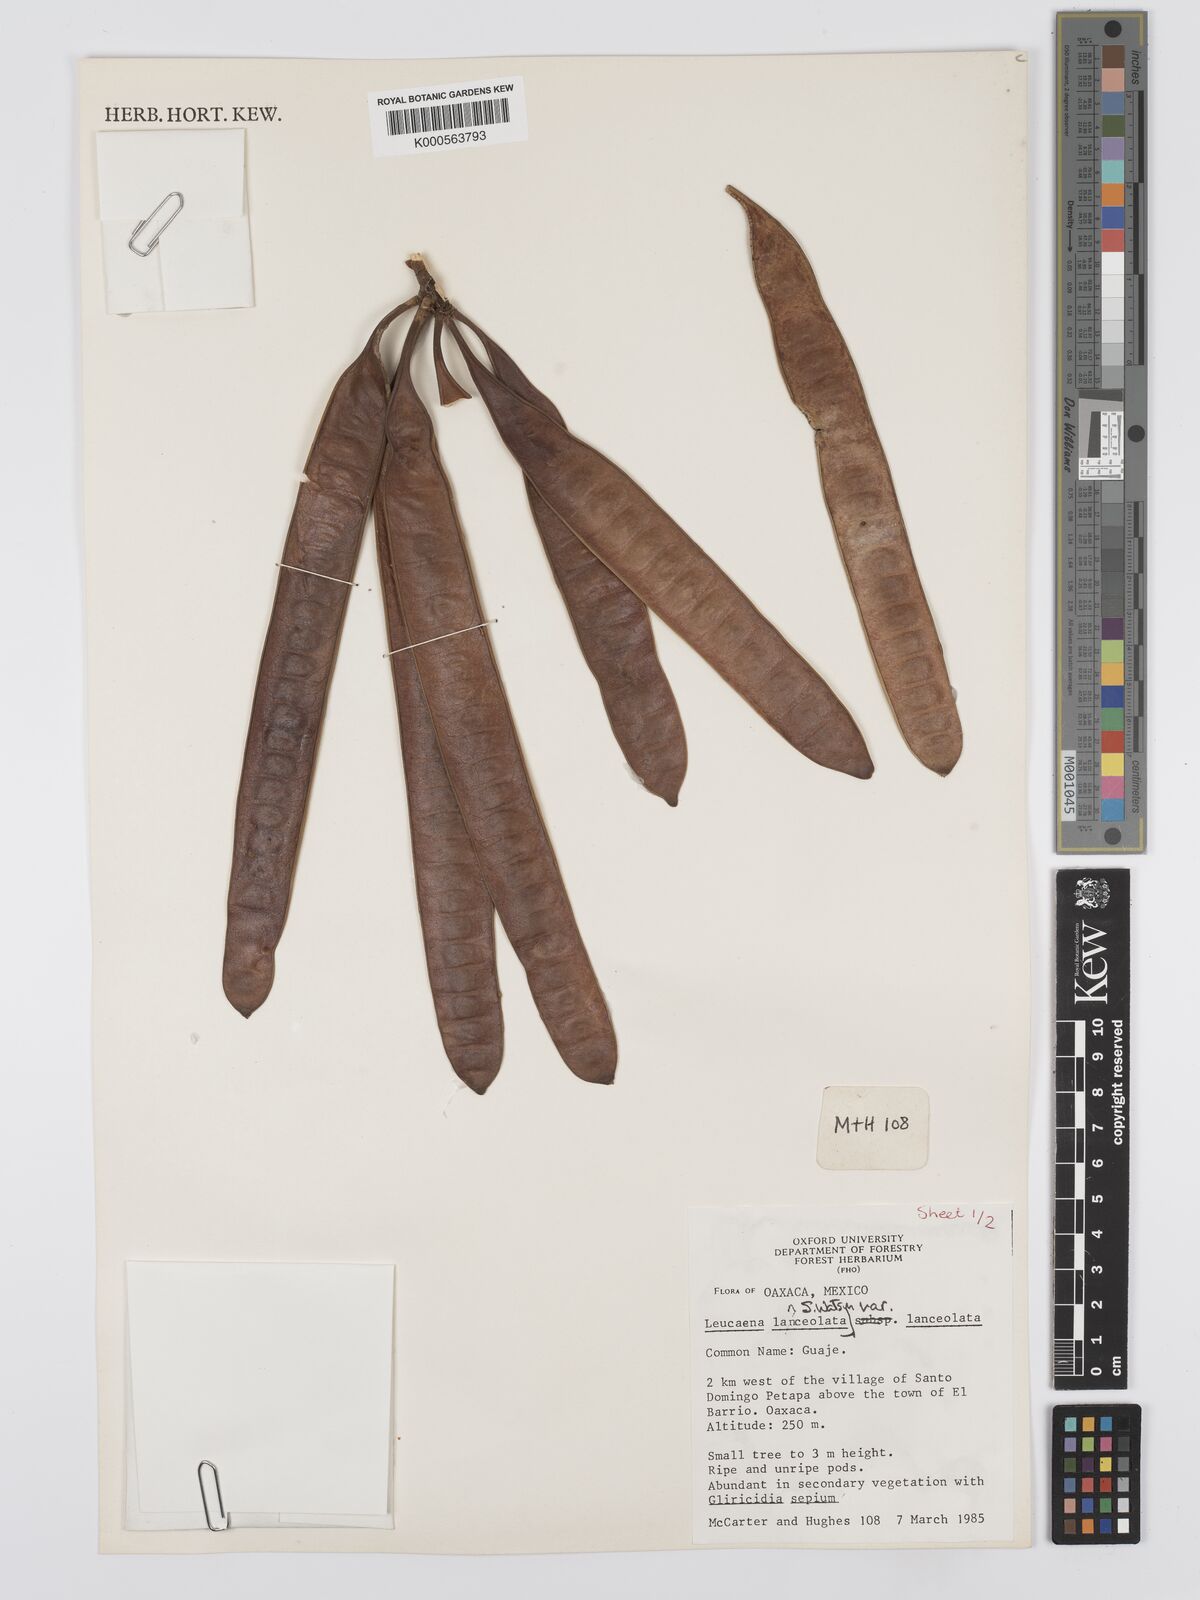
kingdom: Plantae
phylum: Tracheophyta
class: Magnoliopsida
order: Fabales
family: Fabaceae
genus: Leucaena
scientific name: Leucaena lanceolata
